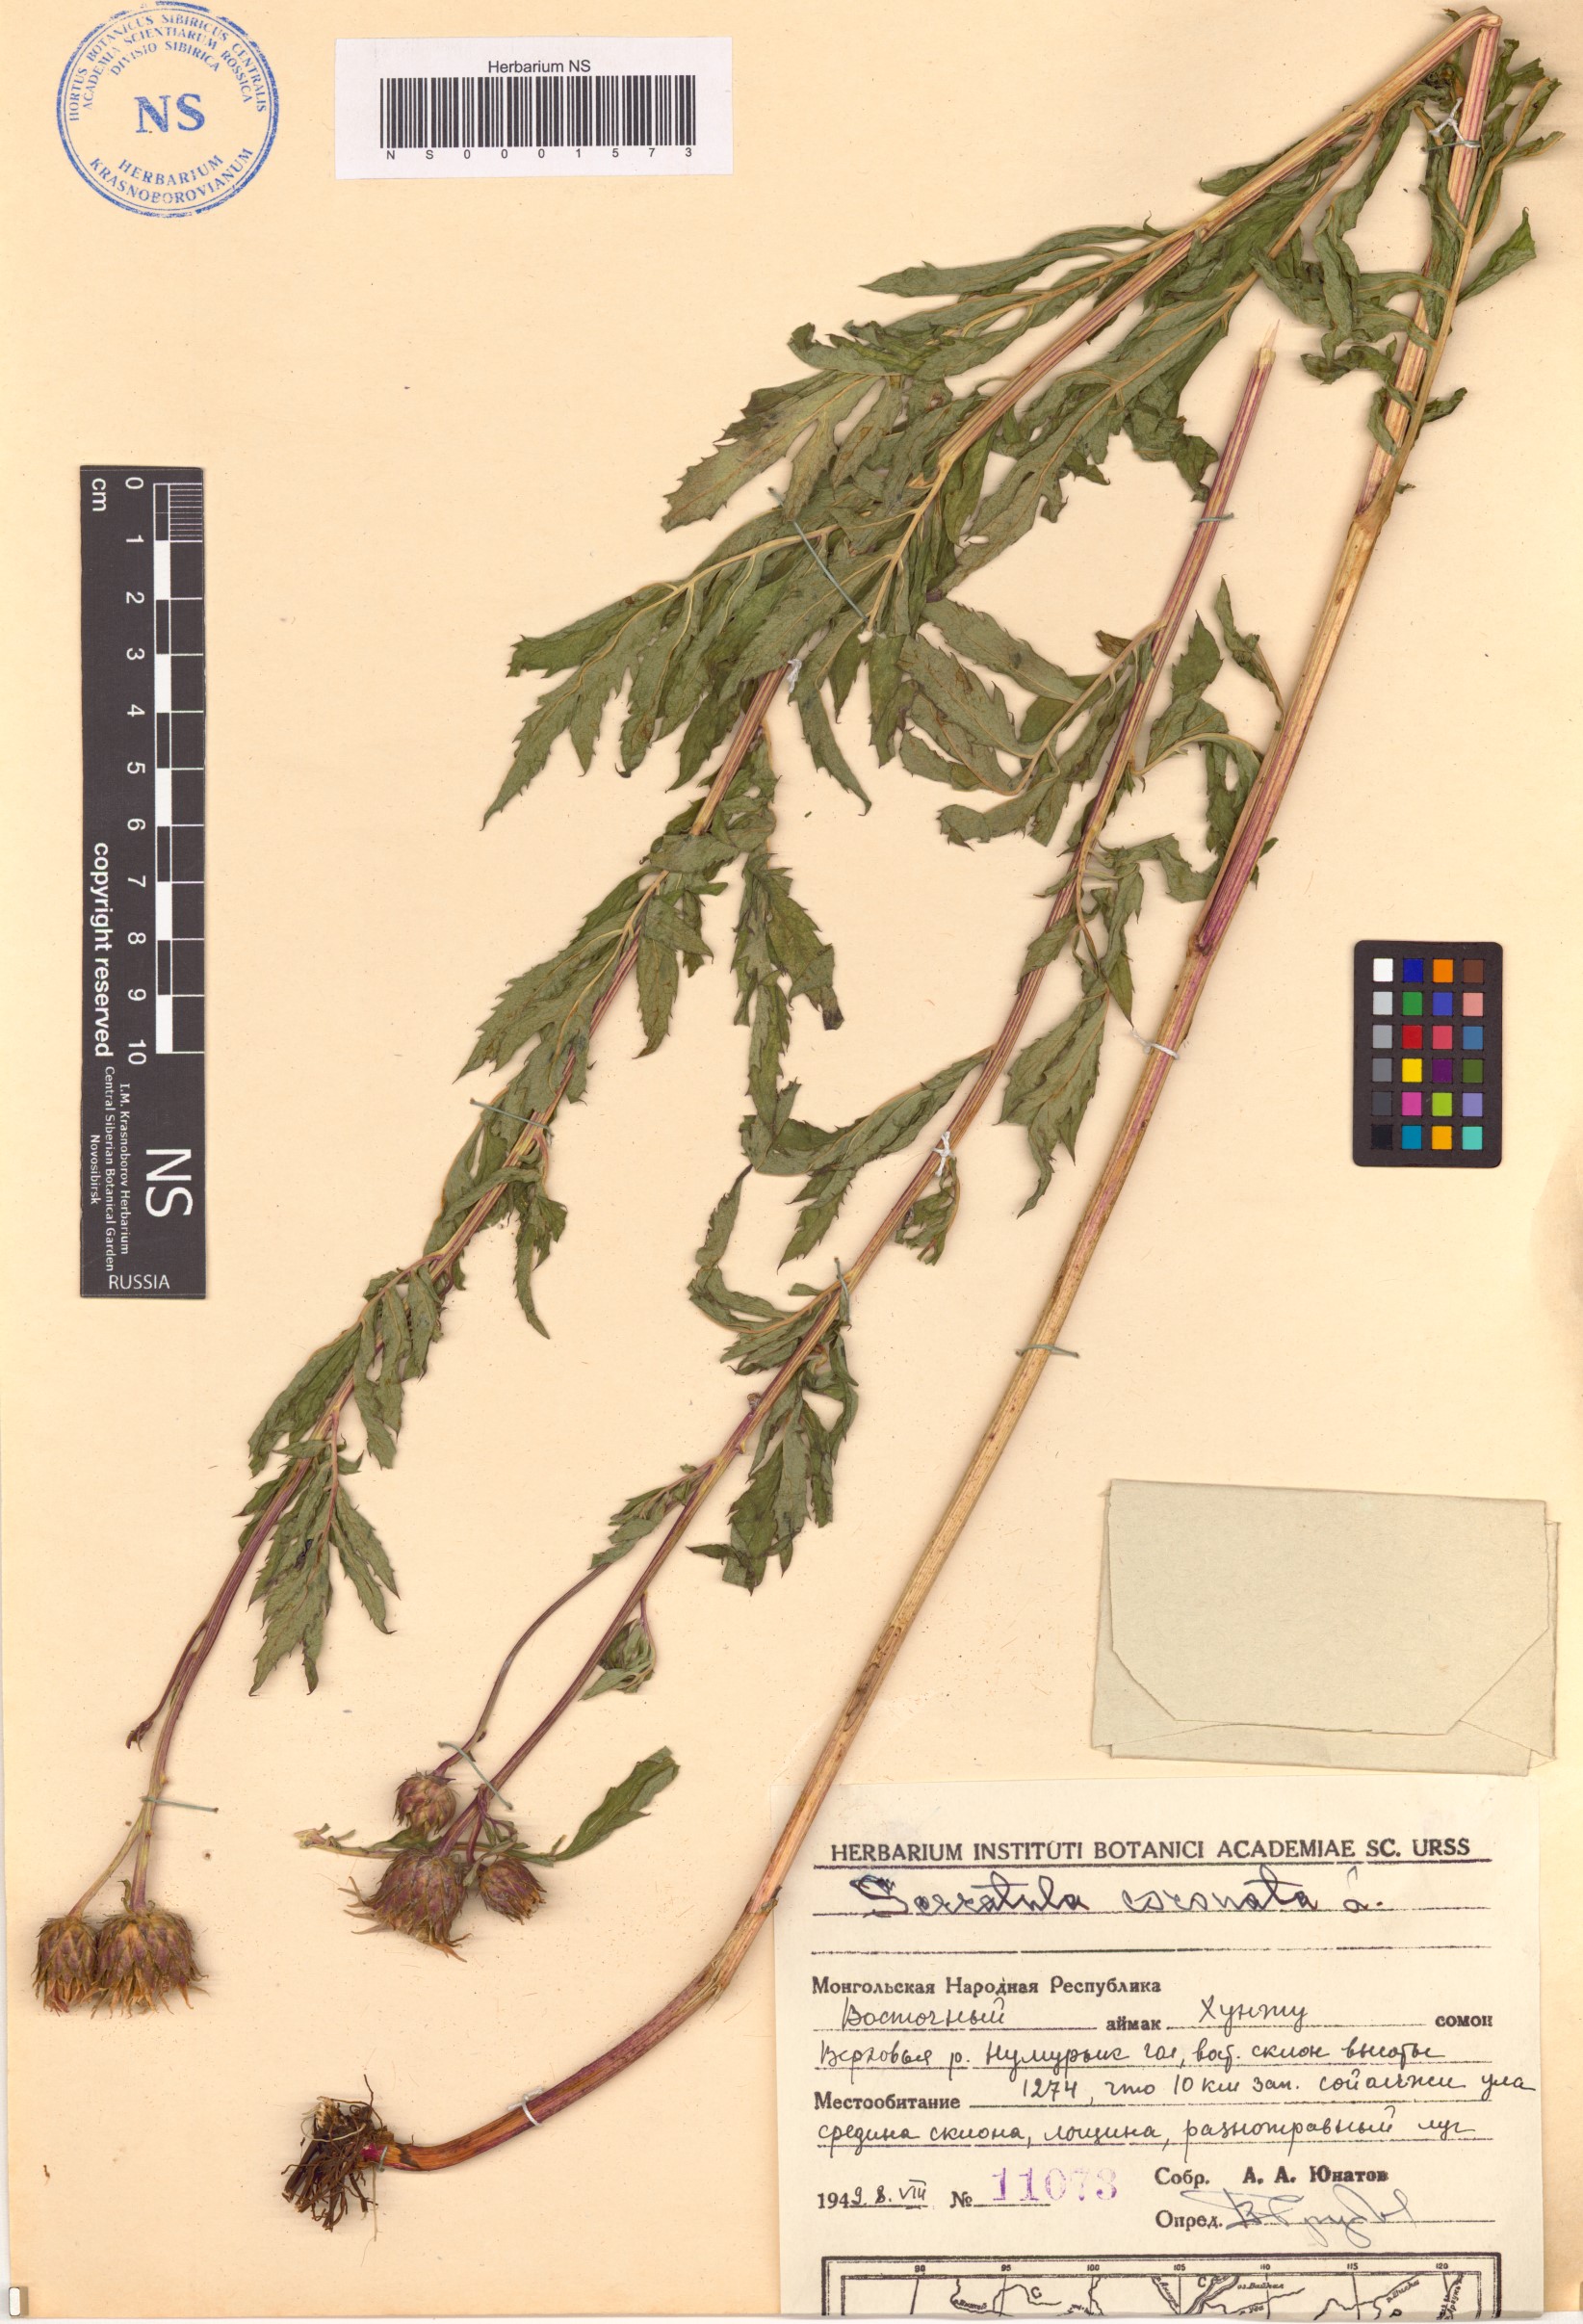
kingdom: Plantae
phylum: Tracheophyta
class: Magnoliopsida
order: Asterales
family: Asteraceae
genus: Serratula
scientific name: Serratula coronata
